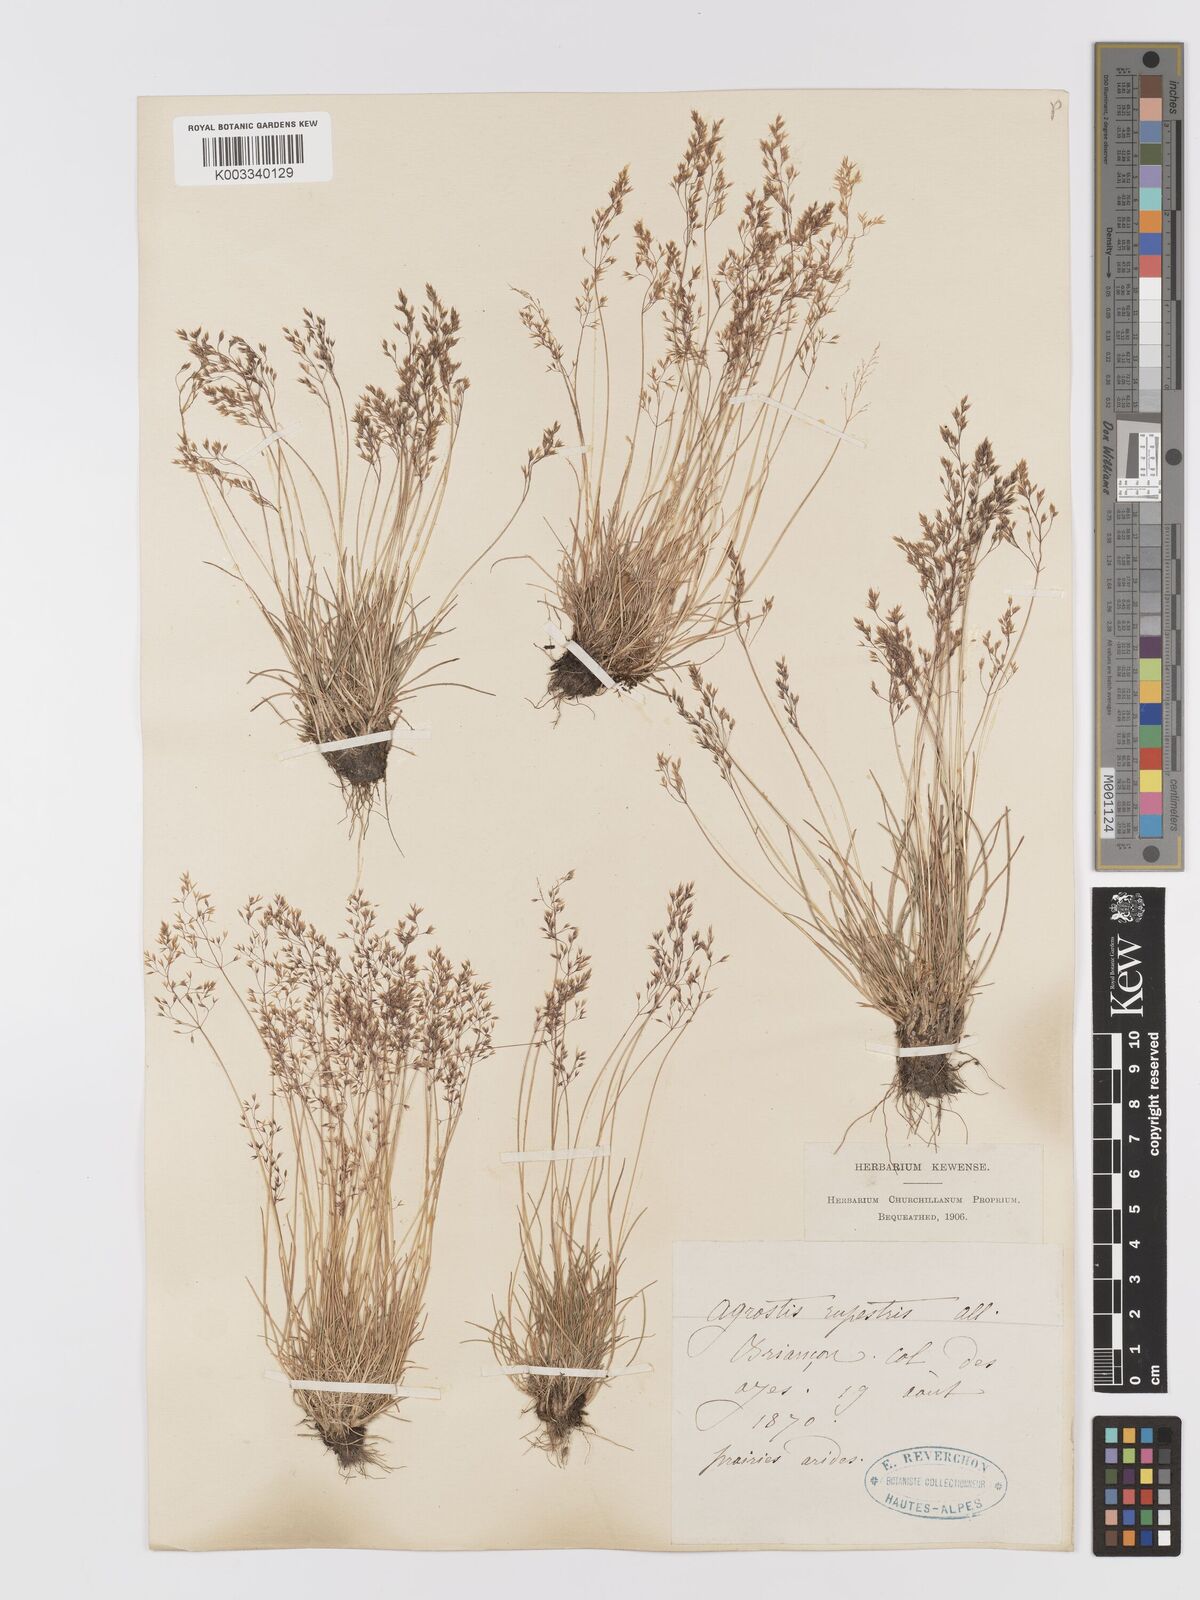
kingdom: Plantae
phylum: Tracheophyta
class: Liliopsida
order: Poales
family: Poaceae
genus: Agrostis
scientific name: Agrostis rupestris
